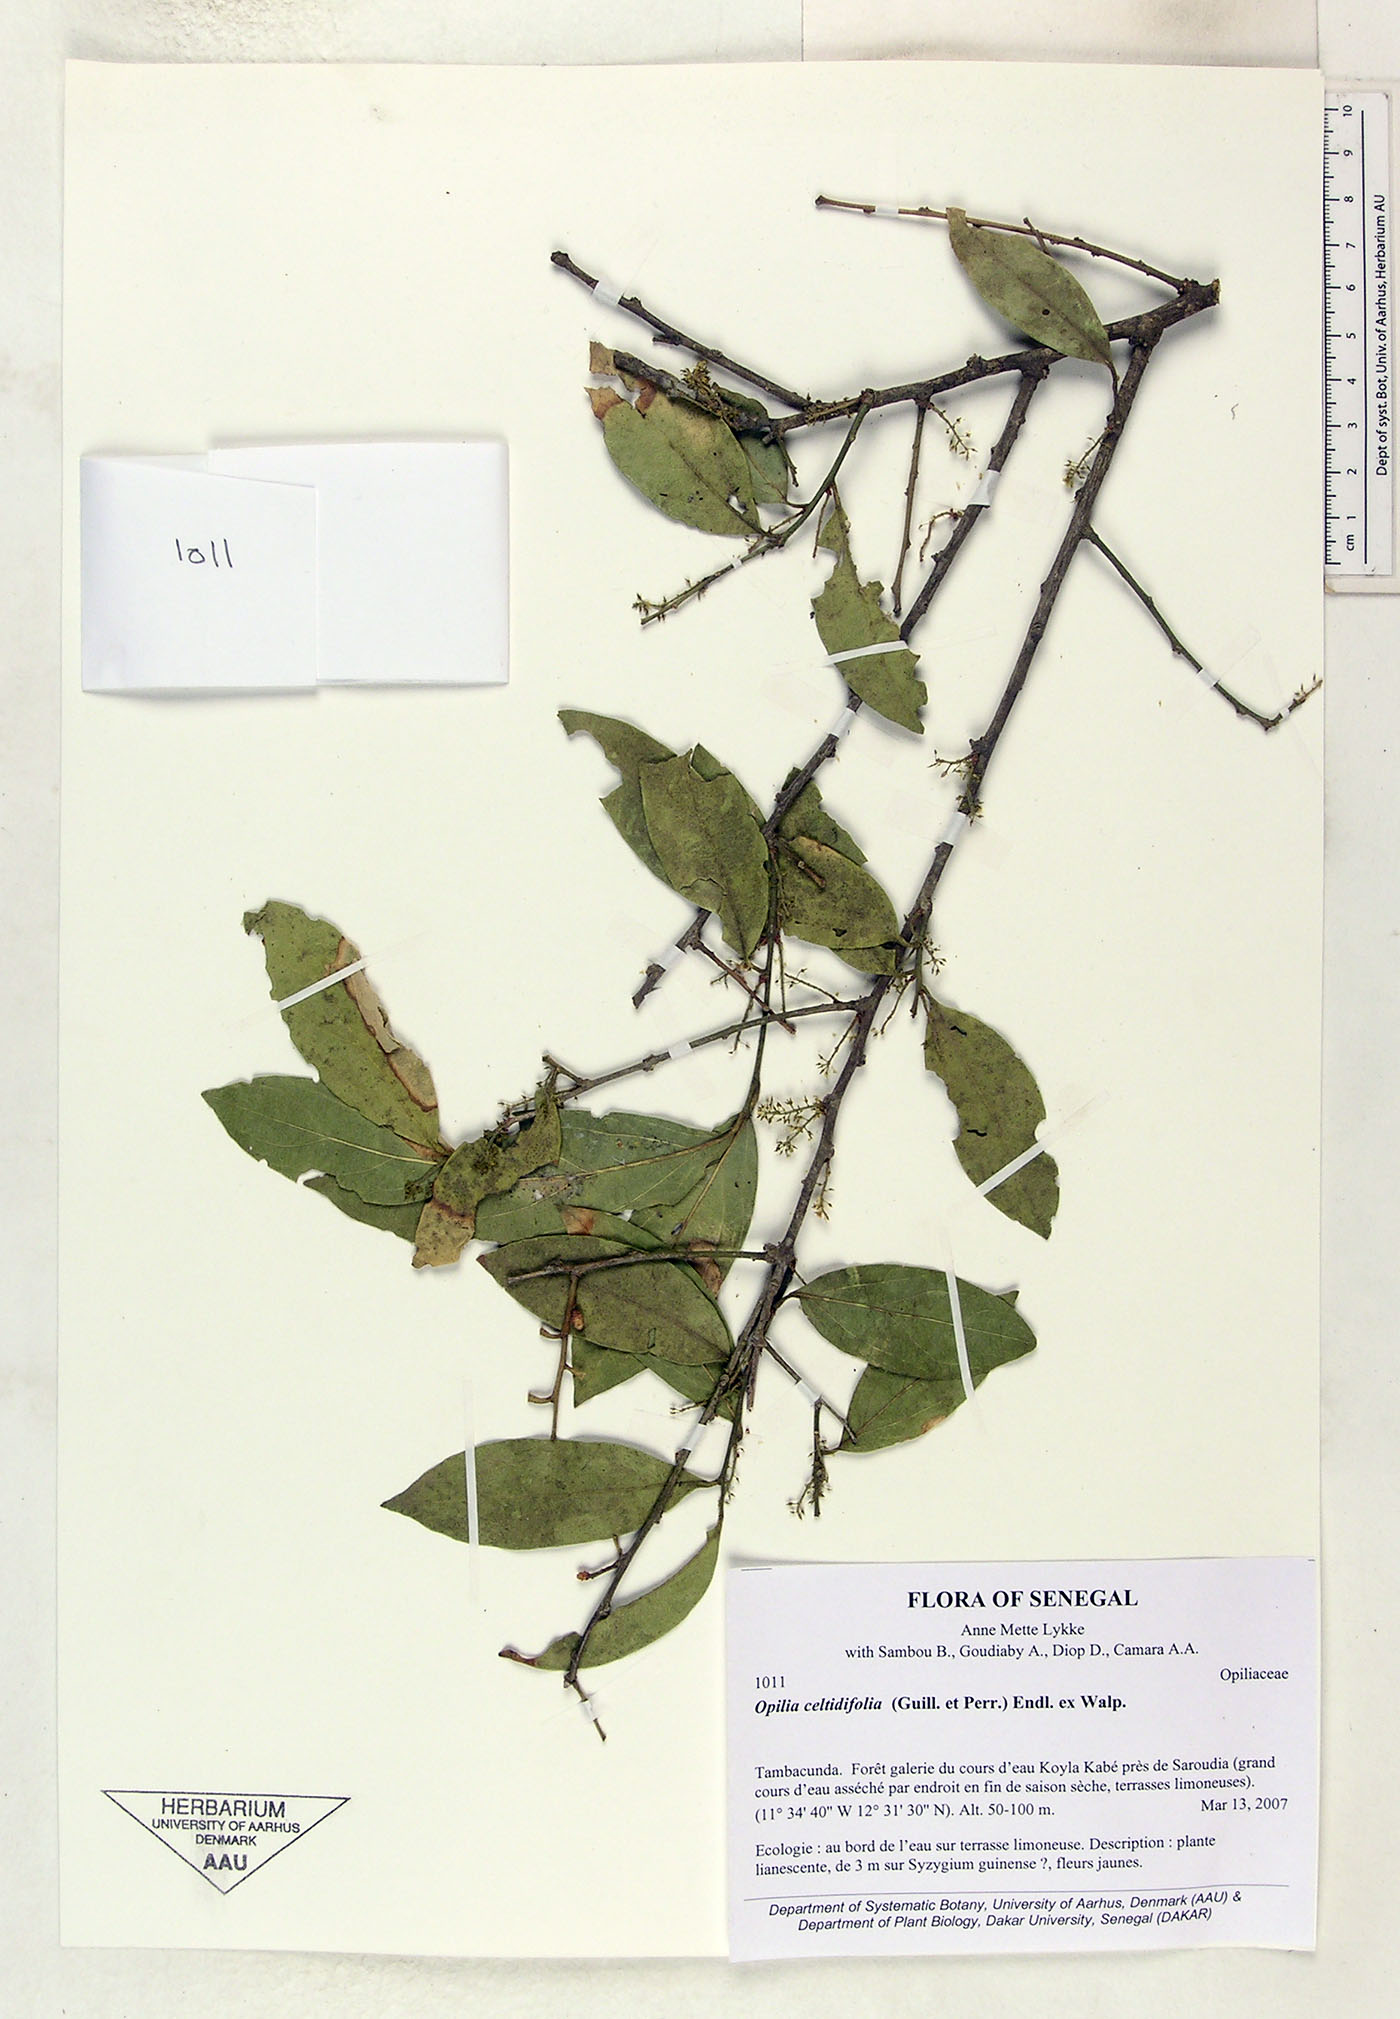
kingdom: Plantae
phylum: Tracheophyta
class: Magnoliopsida
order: Santalales
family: Opiliaceae
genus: Opilia
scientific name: Opilia amentacea
